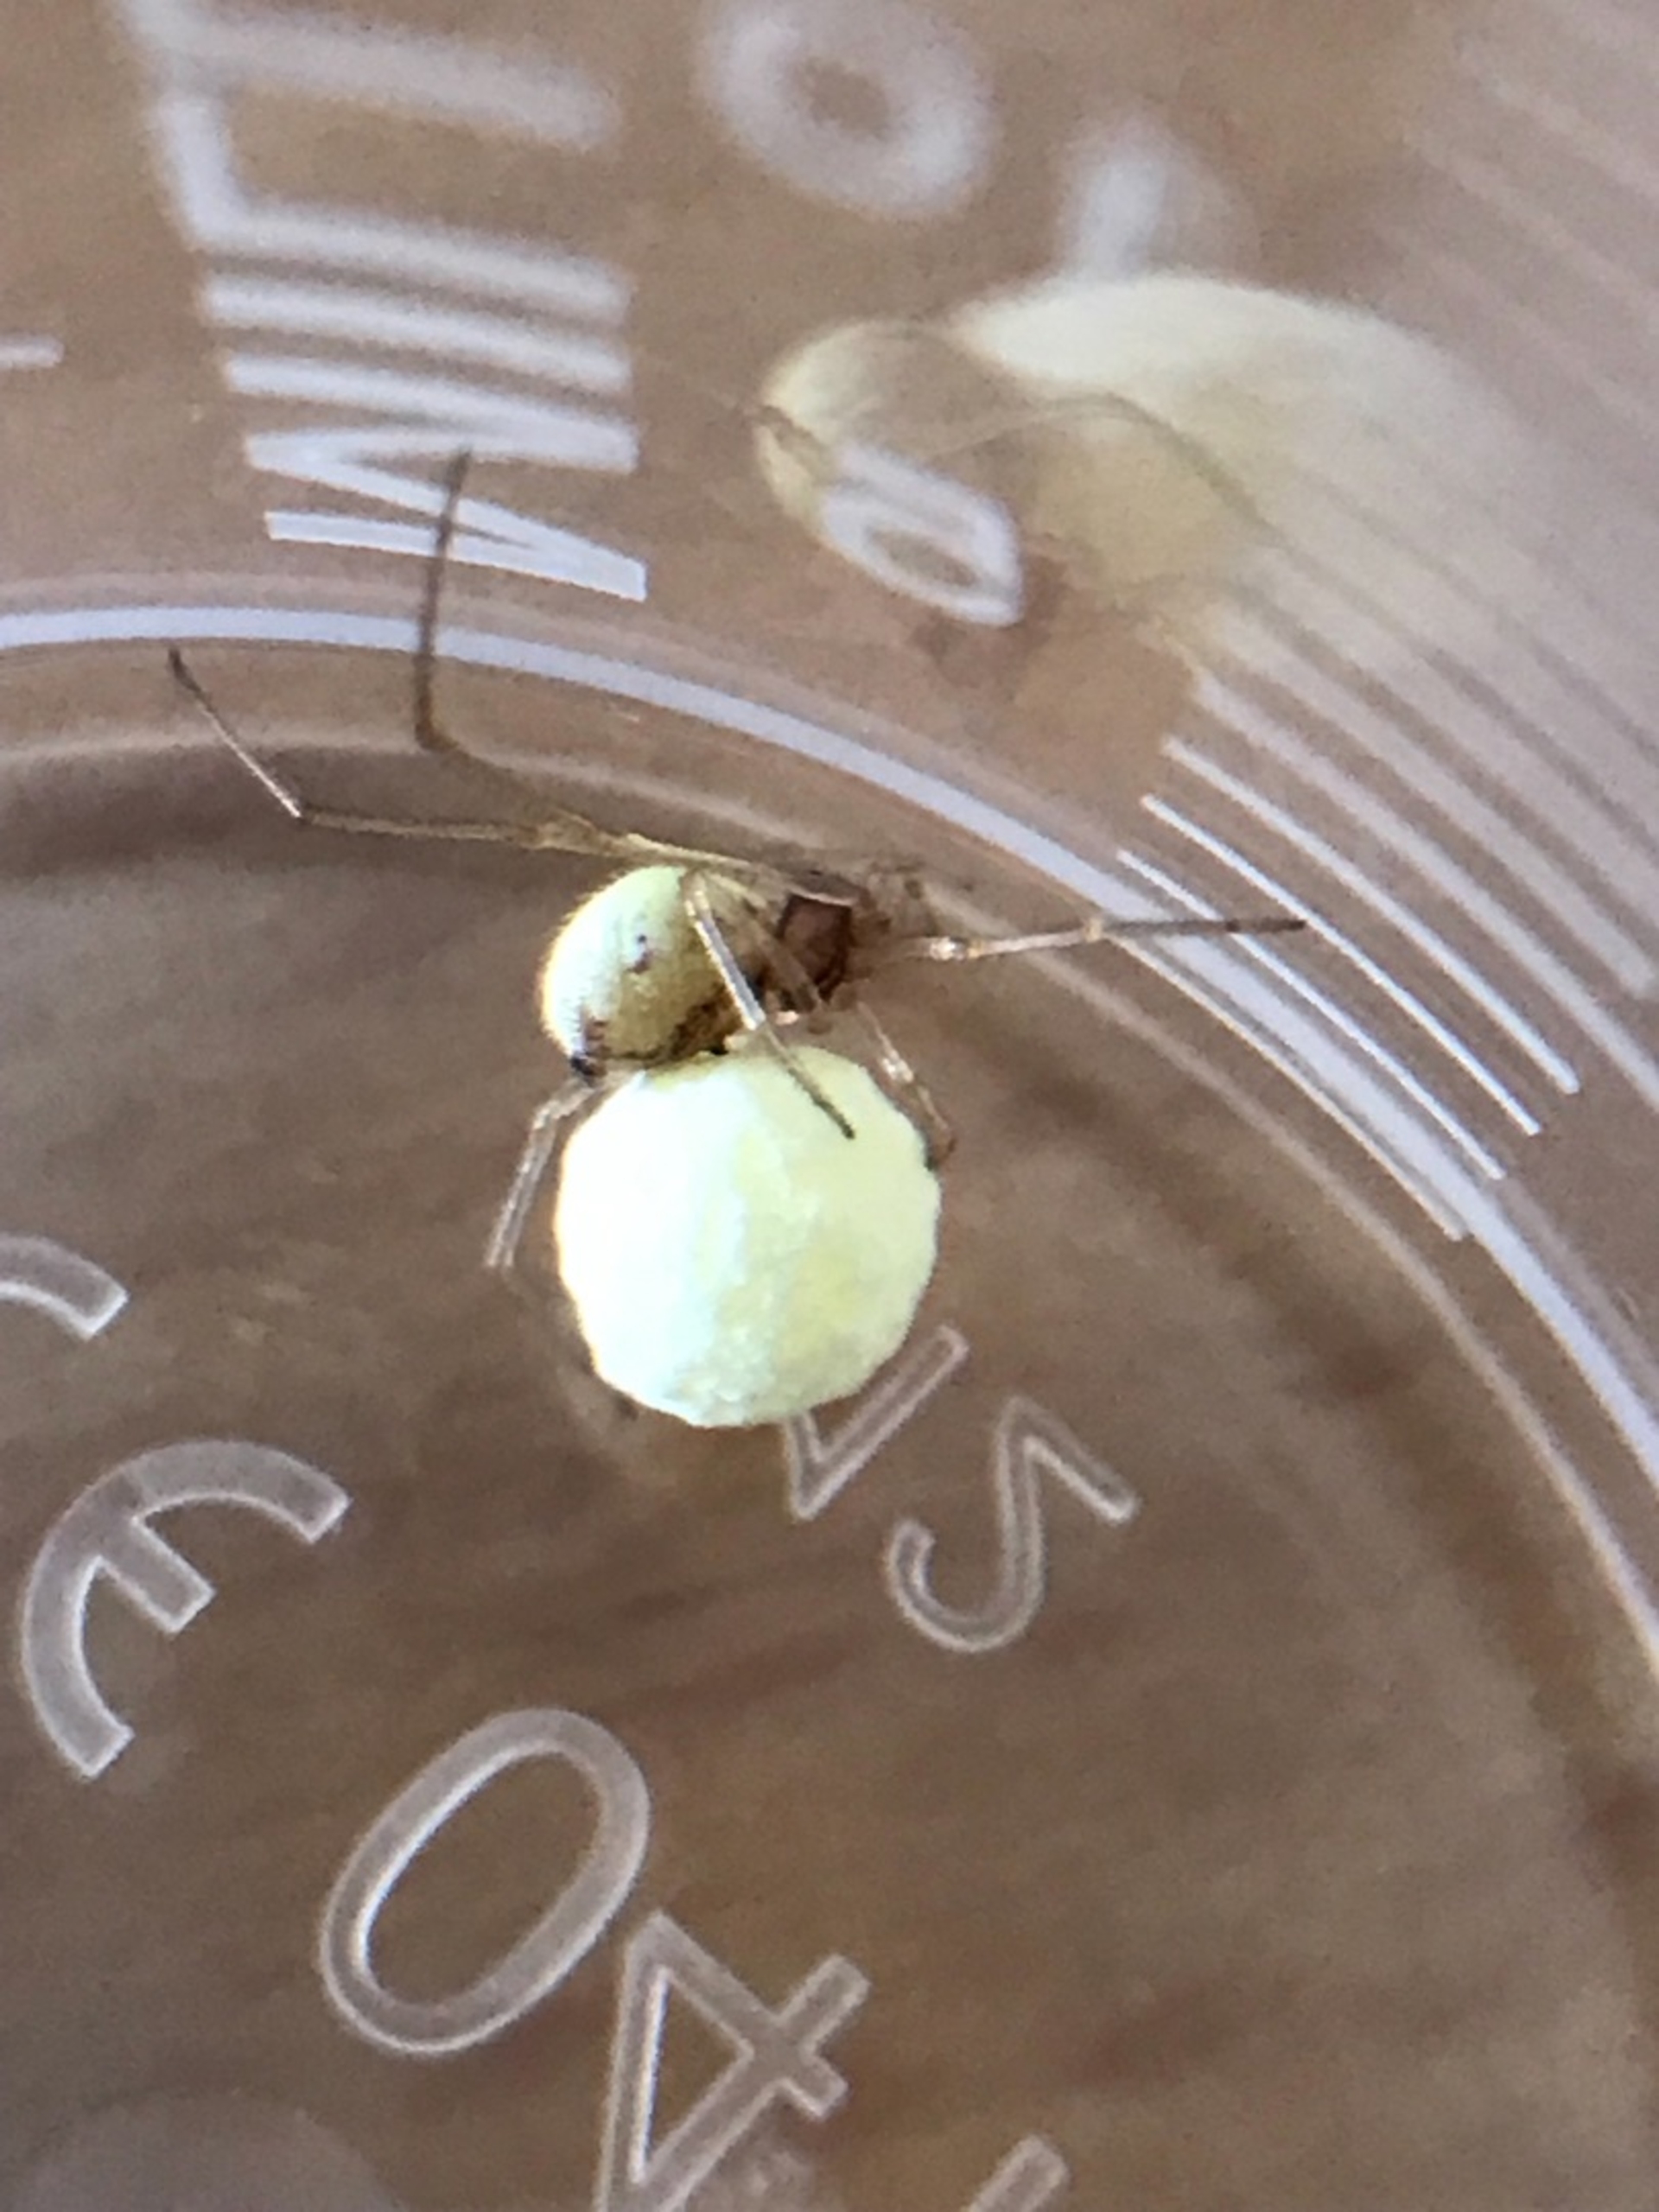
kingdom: Animalia
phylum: Arthropoda
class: Arachnida
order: Araneae
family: Theridiidae
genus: Neottiura
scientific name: Neottiura bimaculata
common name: Æggebæreren
